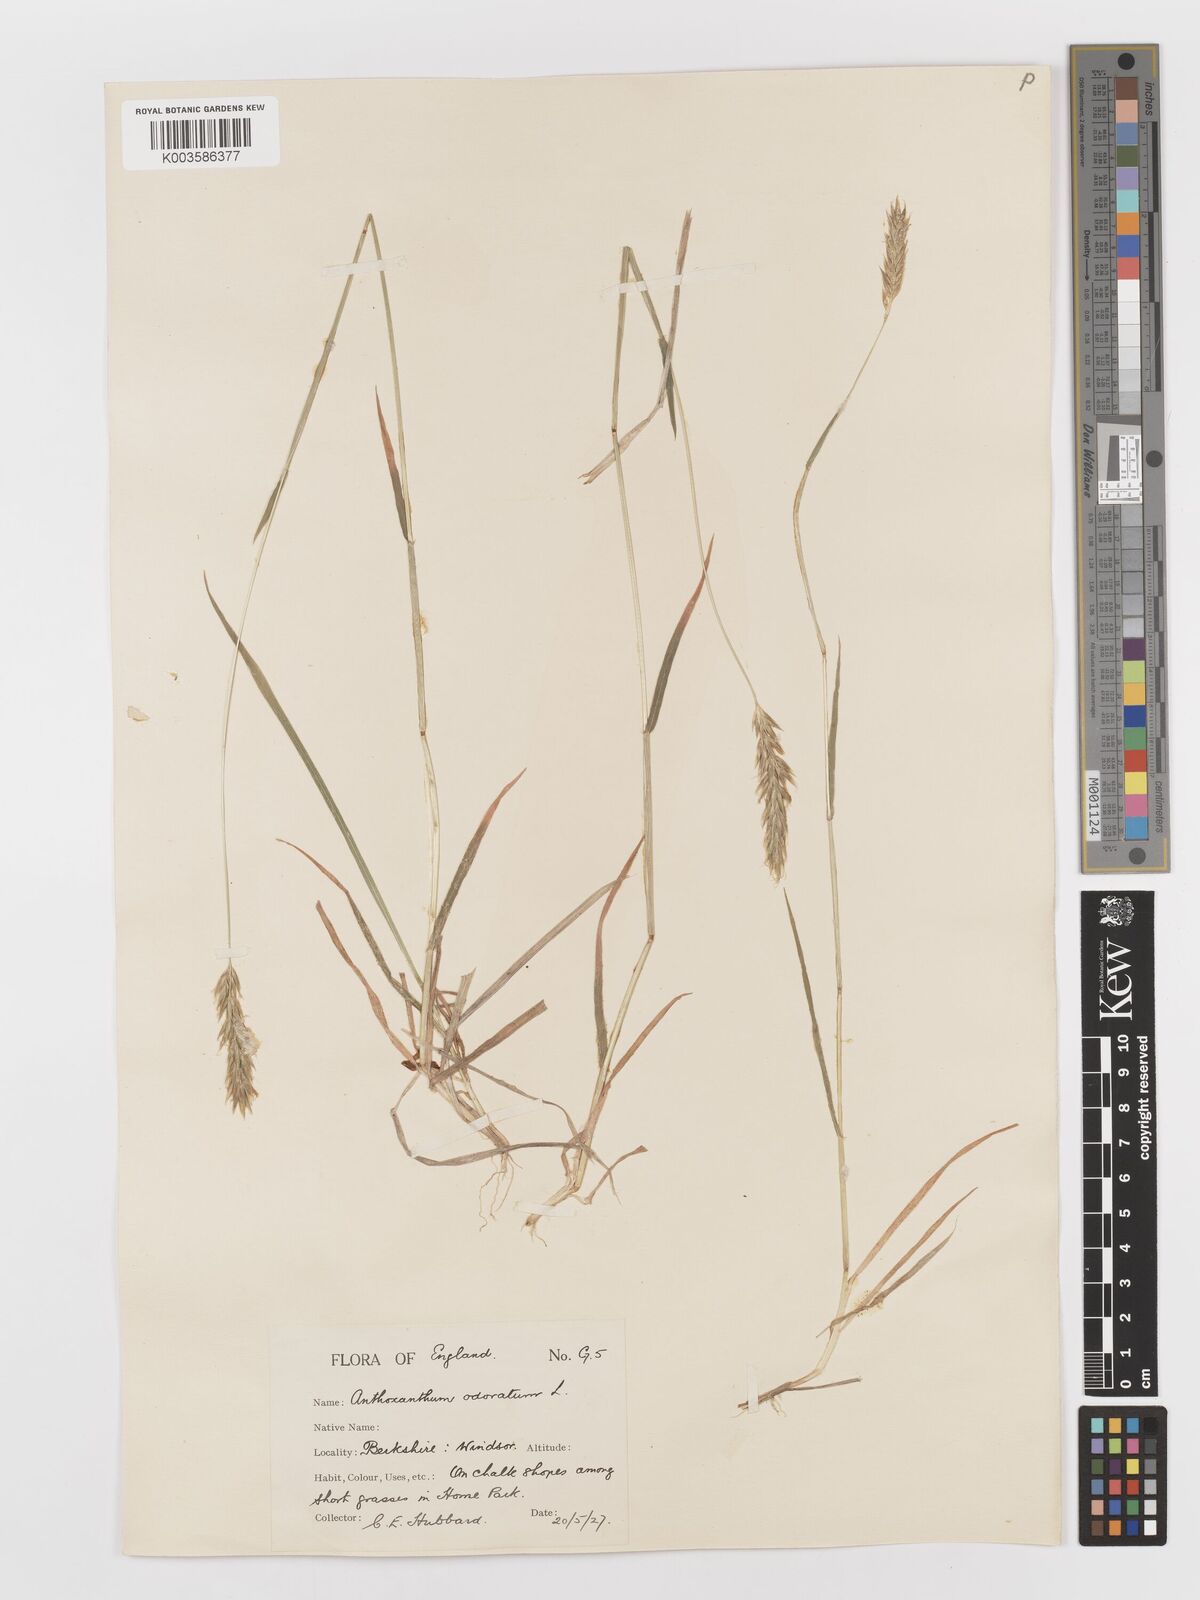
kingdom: Plantae
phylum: Tracheophyta
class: Liliopsida
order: Poales
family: Poaceae
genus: Anthoxanthum
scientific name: Anthoxanthum odoratum
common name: Sweet vernalgrass
